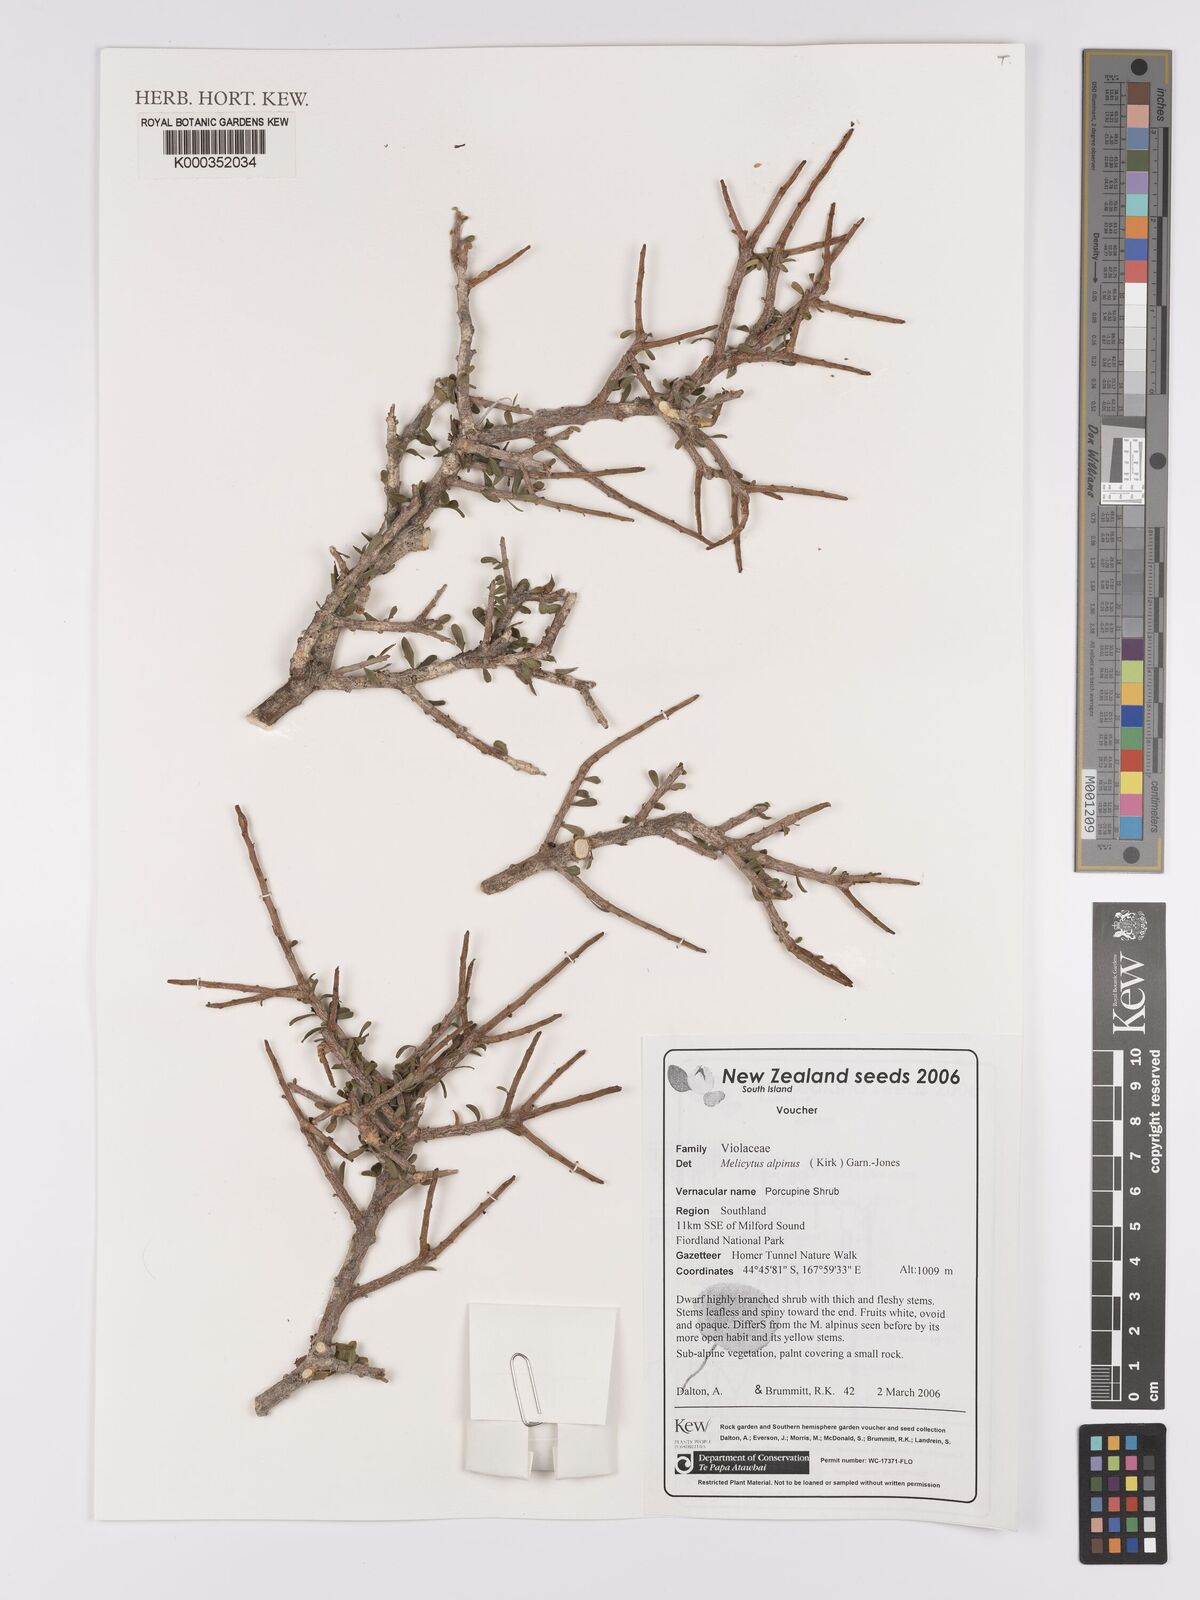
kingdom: Plantae
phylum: Tracheophyta
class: Magnoliopsida
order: Malpighiales
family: Violaceae
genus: Melicytus
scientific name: Melicytus alpinus
